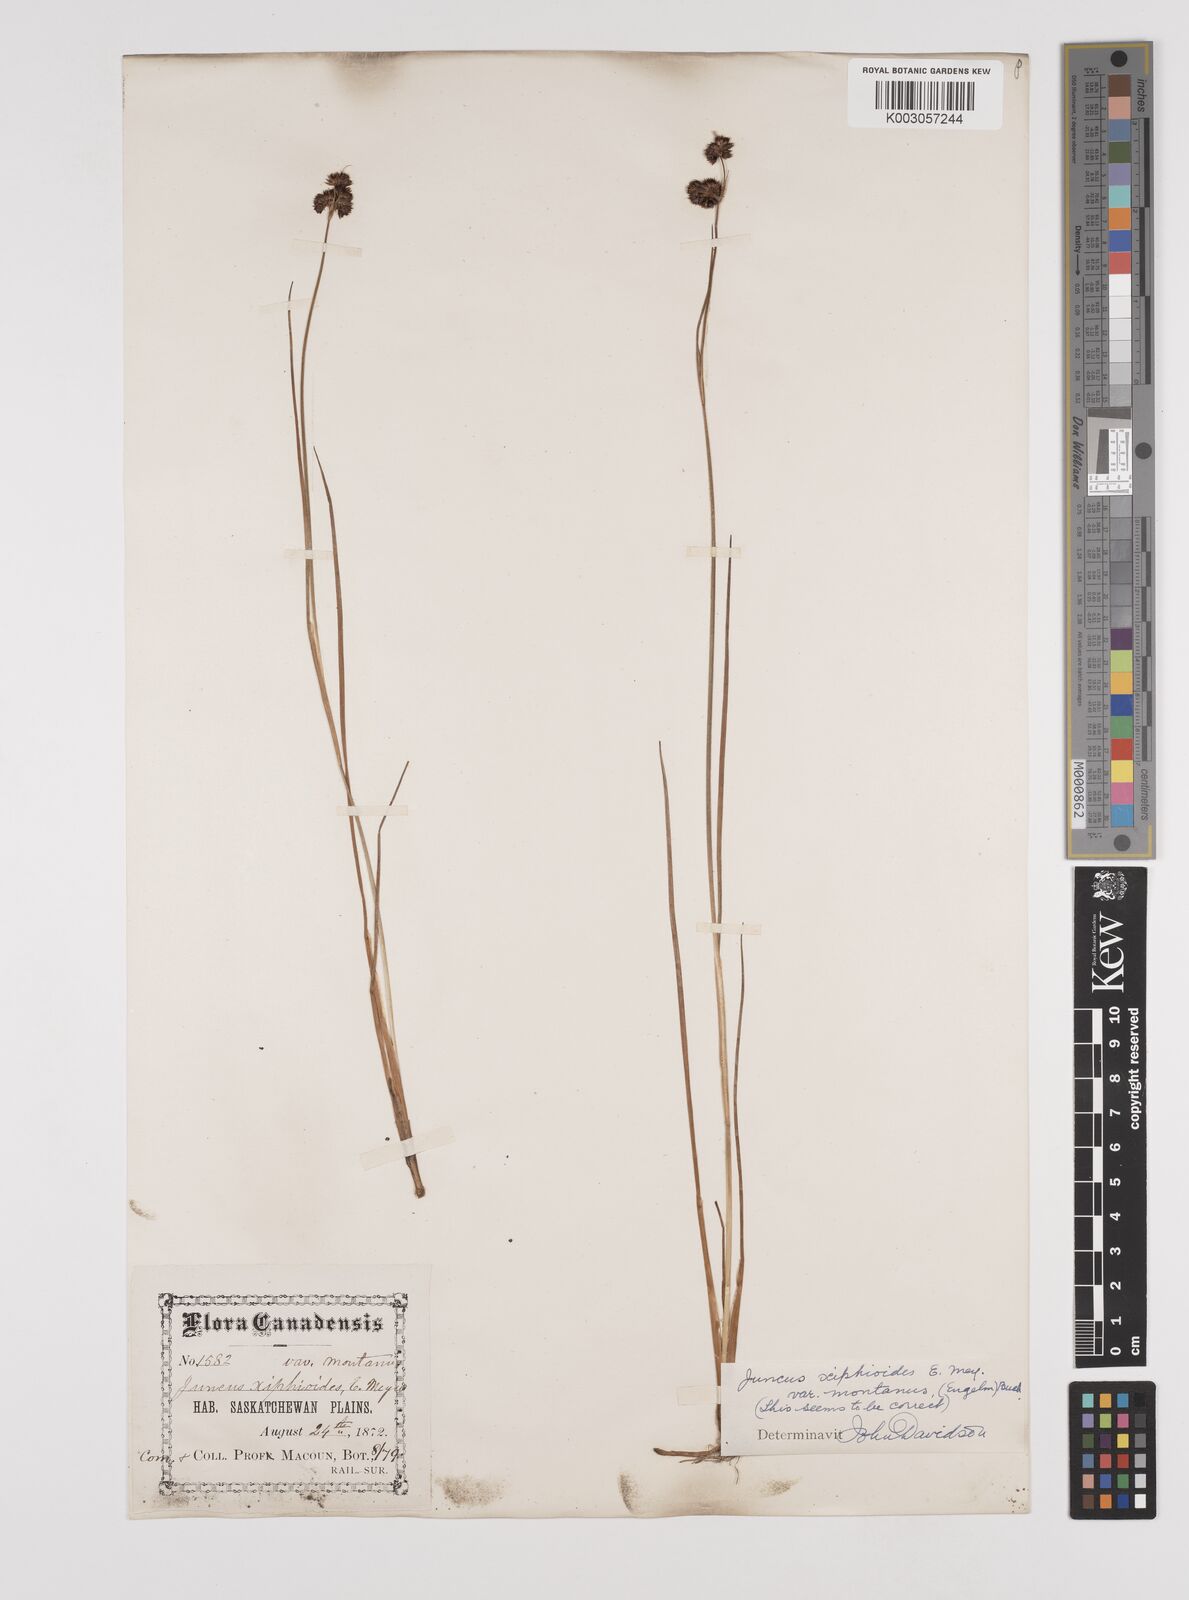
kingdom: Plantae
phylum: Tracheophyta
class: Liliopsida
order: Poales
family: Juncaceae
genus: Juncus
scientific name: Juncus xiphioides
